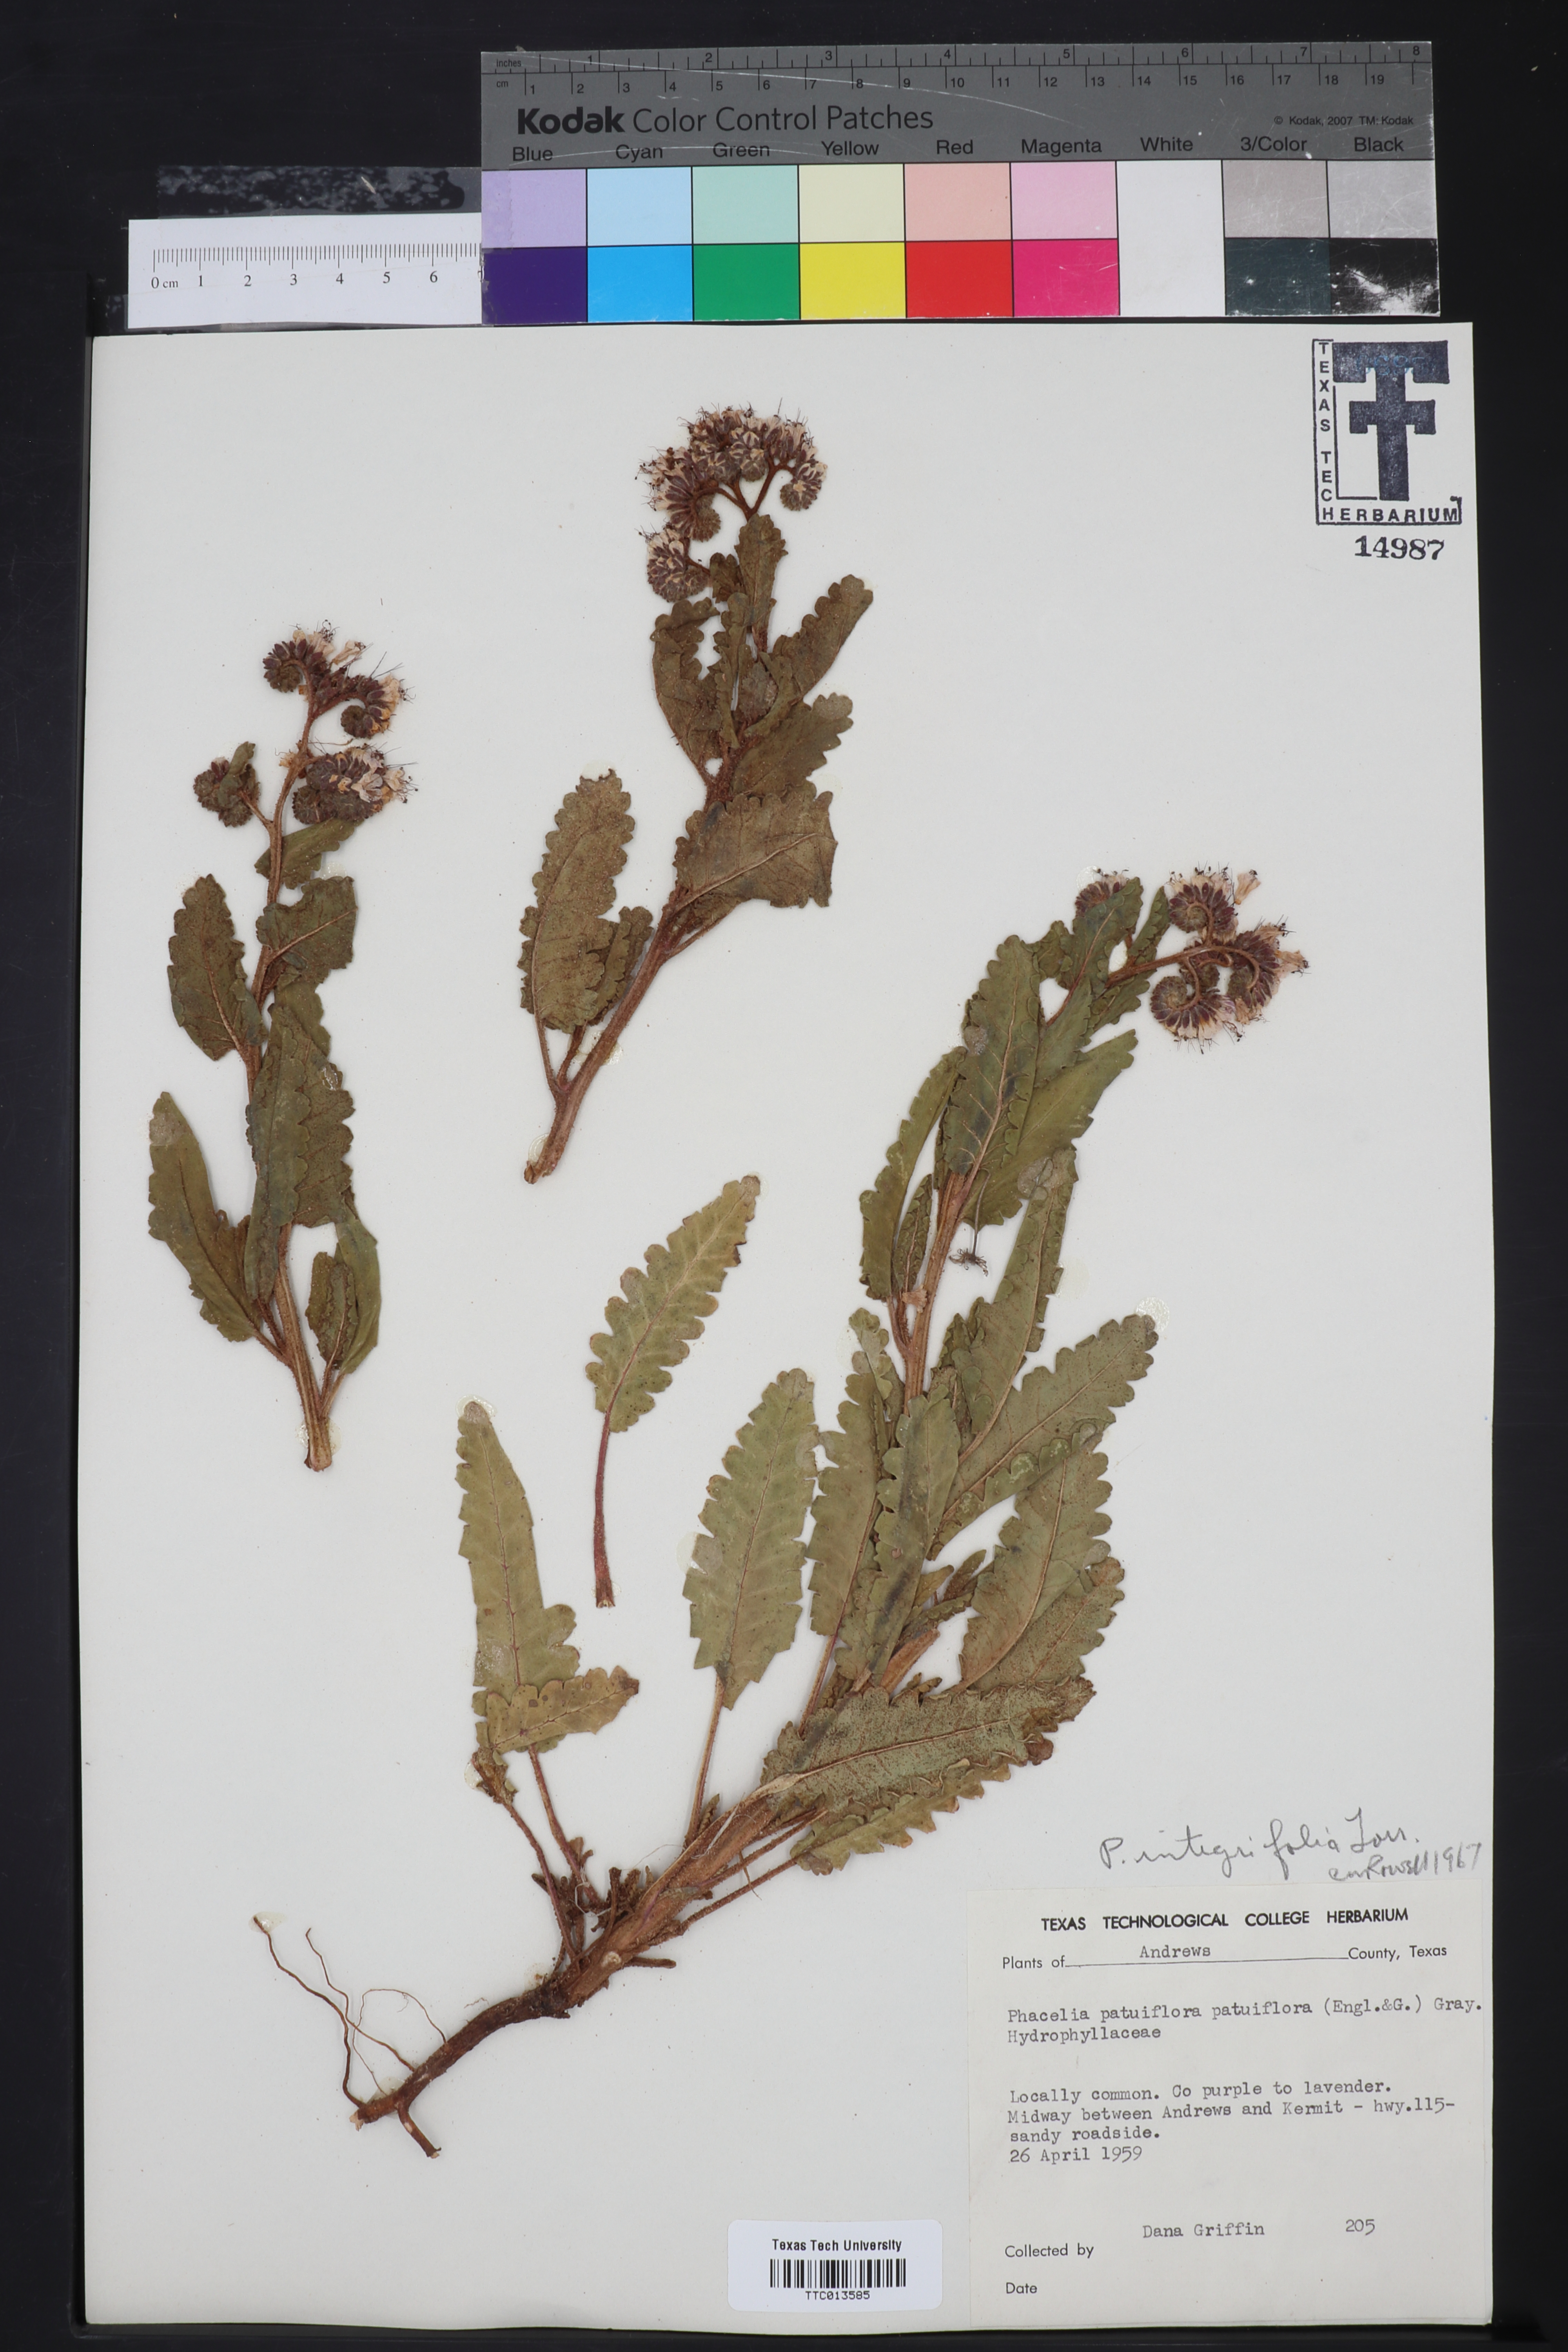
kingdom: Plantae
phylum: Tracheophyta
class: Magnoliopsida
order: Boraginales
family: Hydrophyllaceae
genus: Phacelia
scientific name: Phacelia integrifolia
